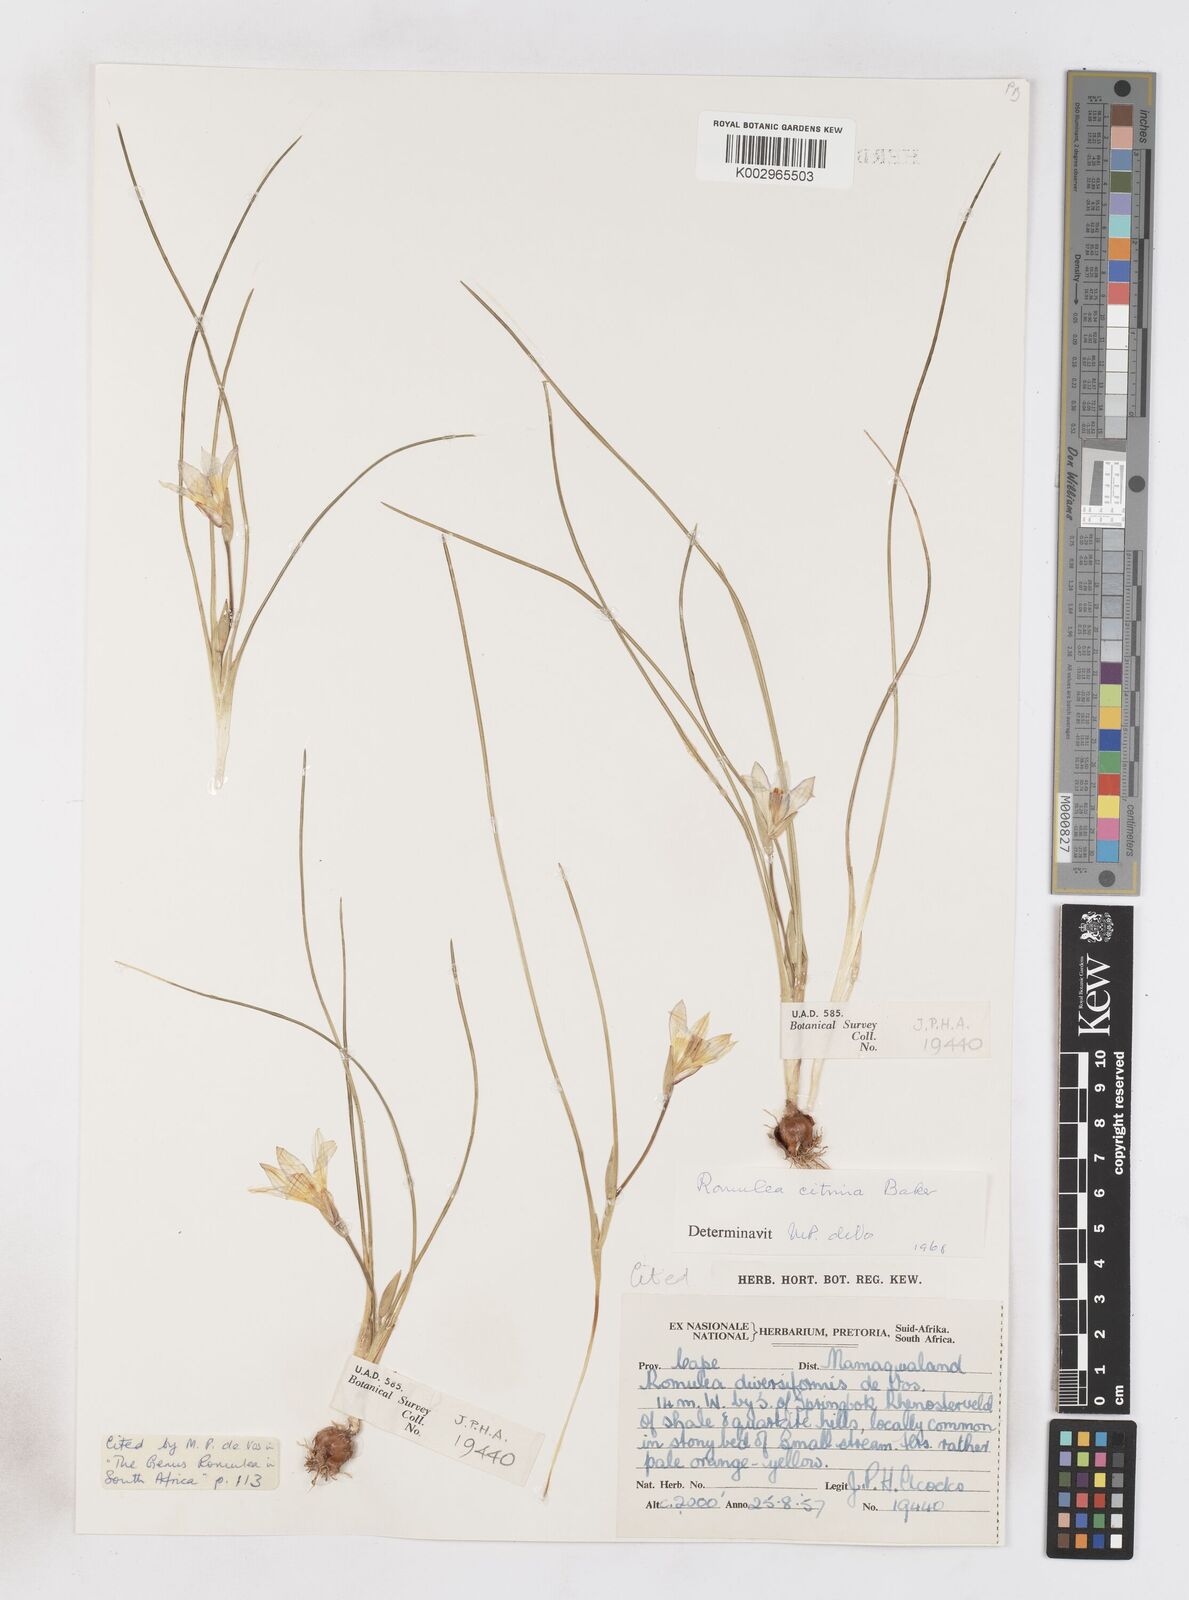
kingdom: Plantae
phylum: Tracheophyta
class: Liliopsida
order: Asparagales
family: Iridaceae
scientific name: Iridaceae
